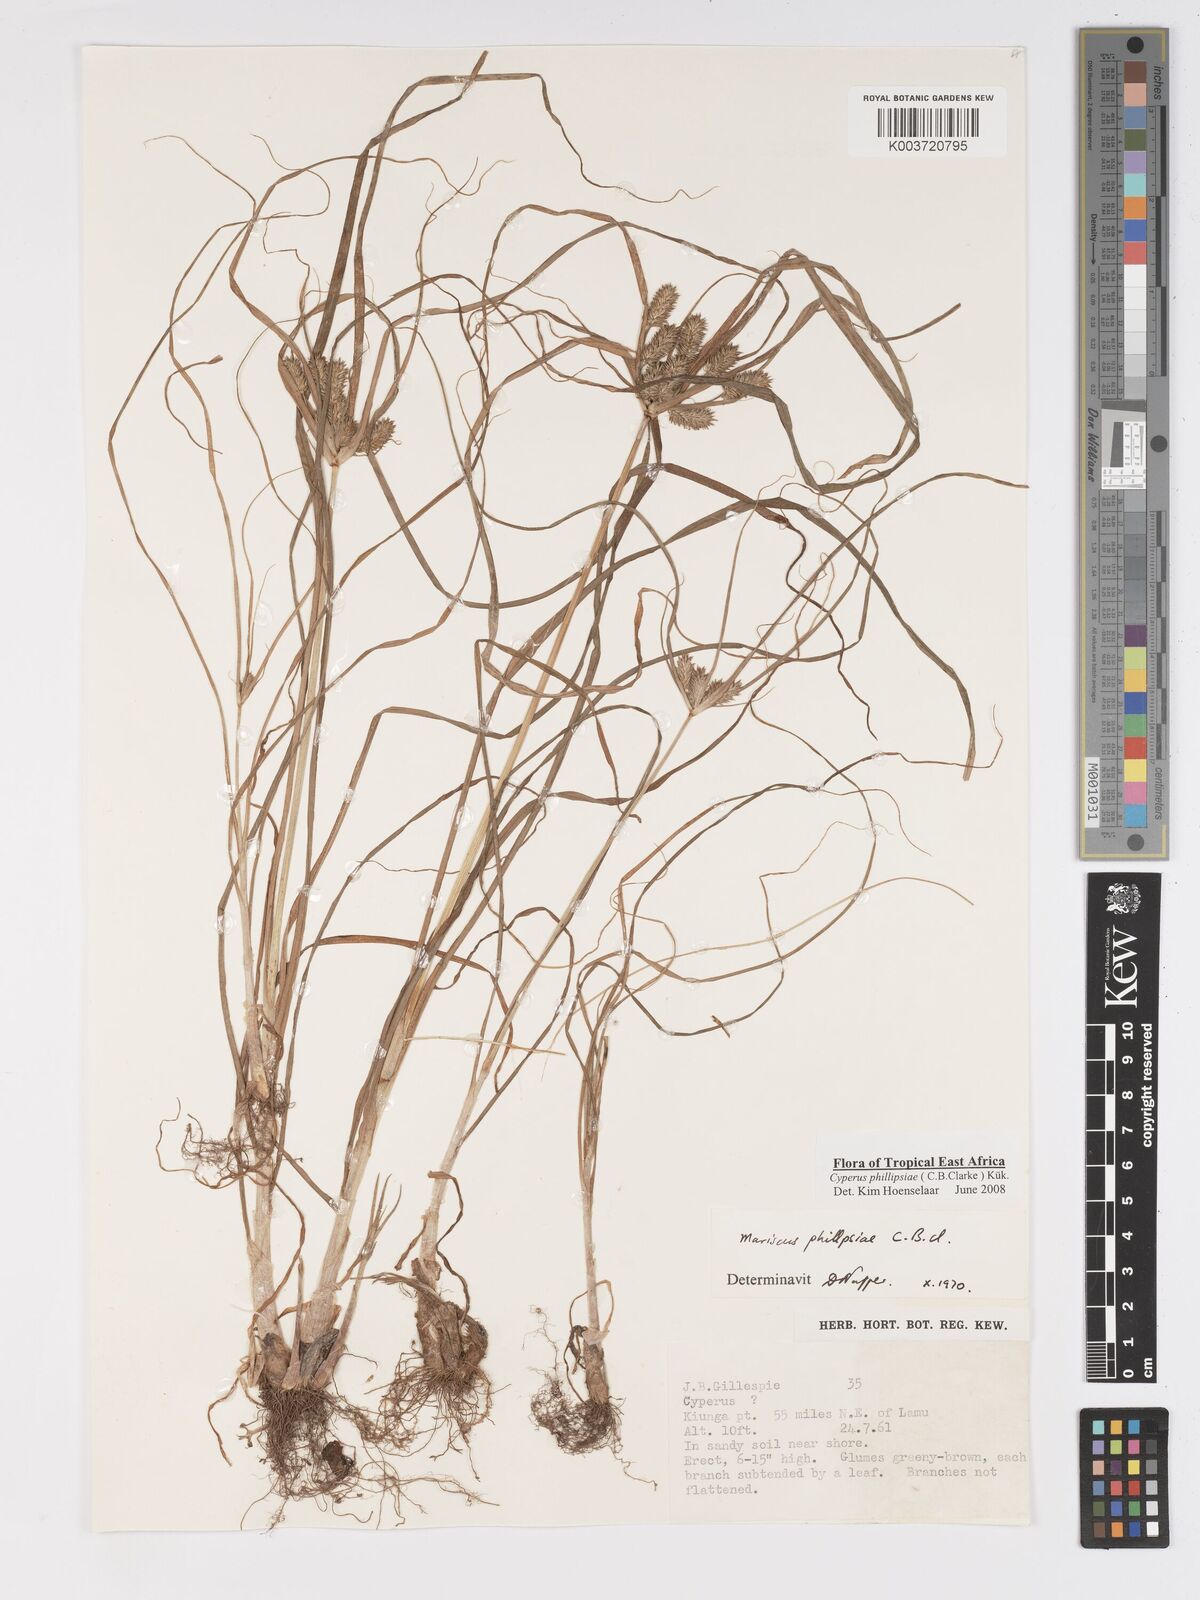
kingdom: Plantae
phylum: Tracheophyta
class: Liliopsida
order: Poales
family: Cyperaceae
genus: Cyperus
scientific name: Cyperus phillipsiae
